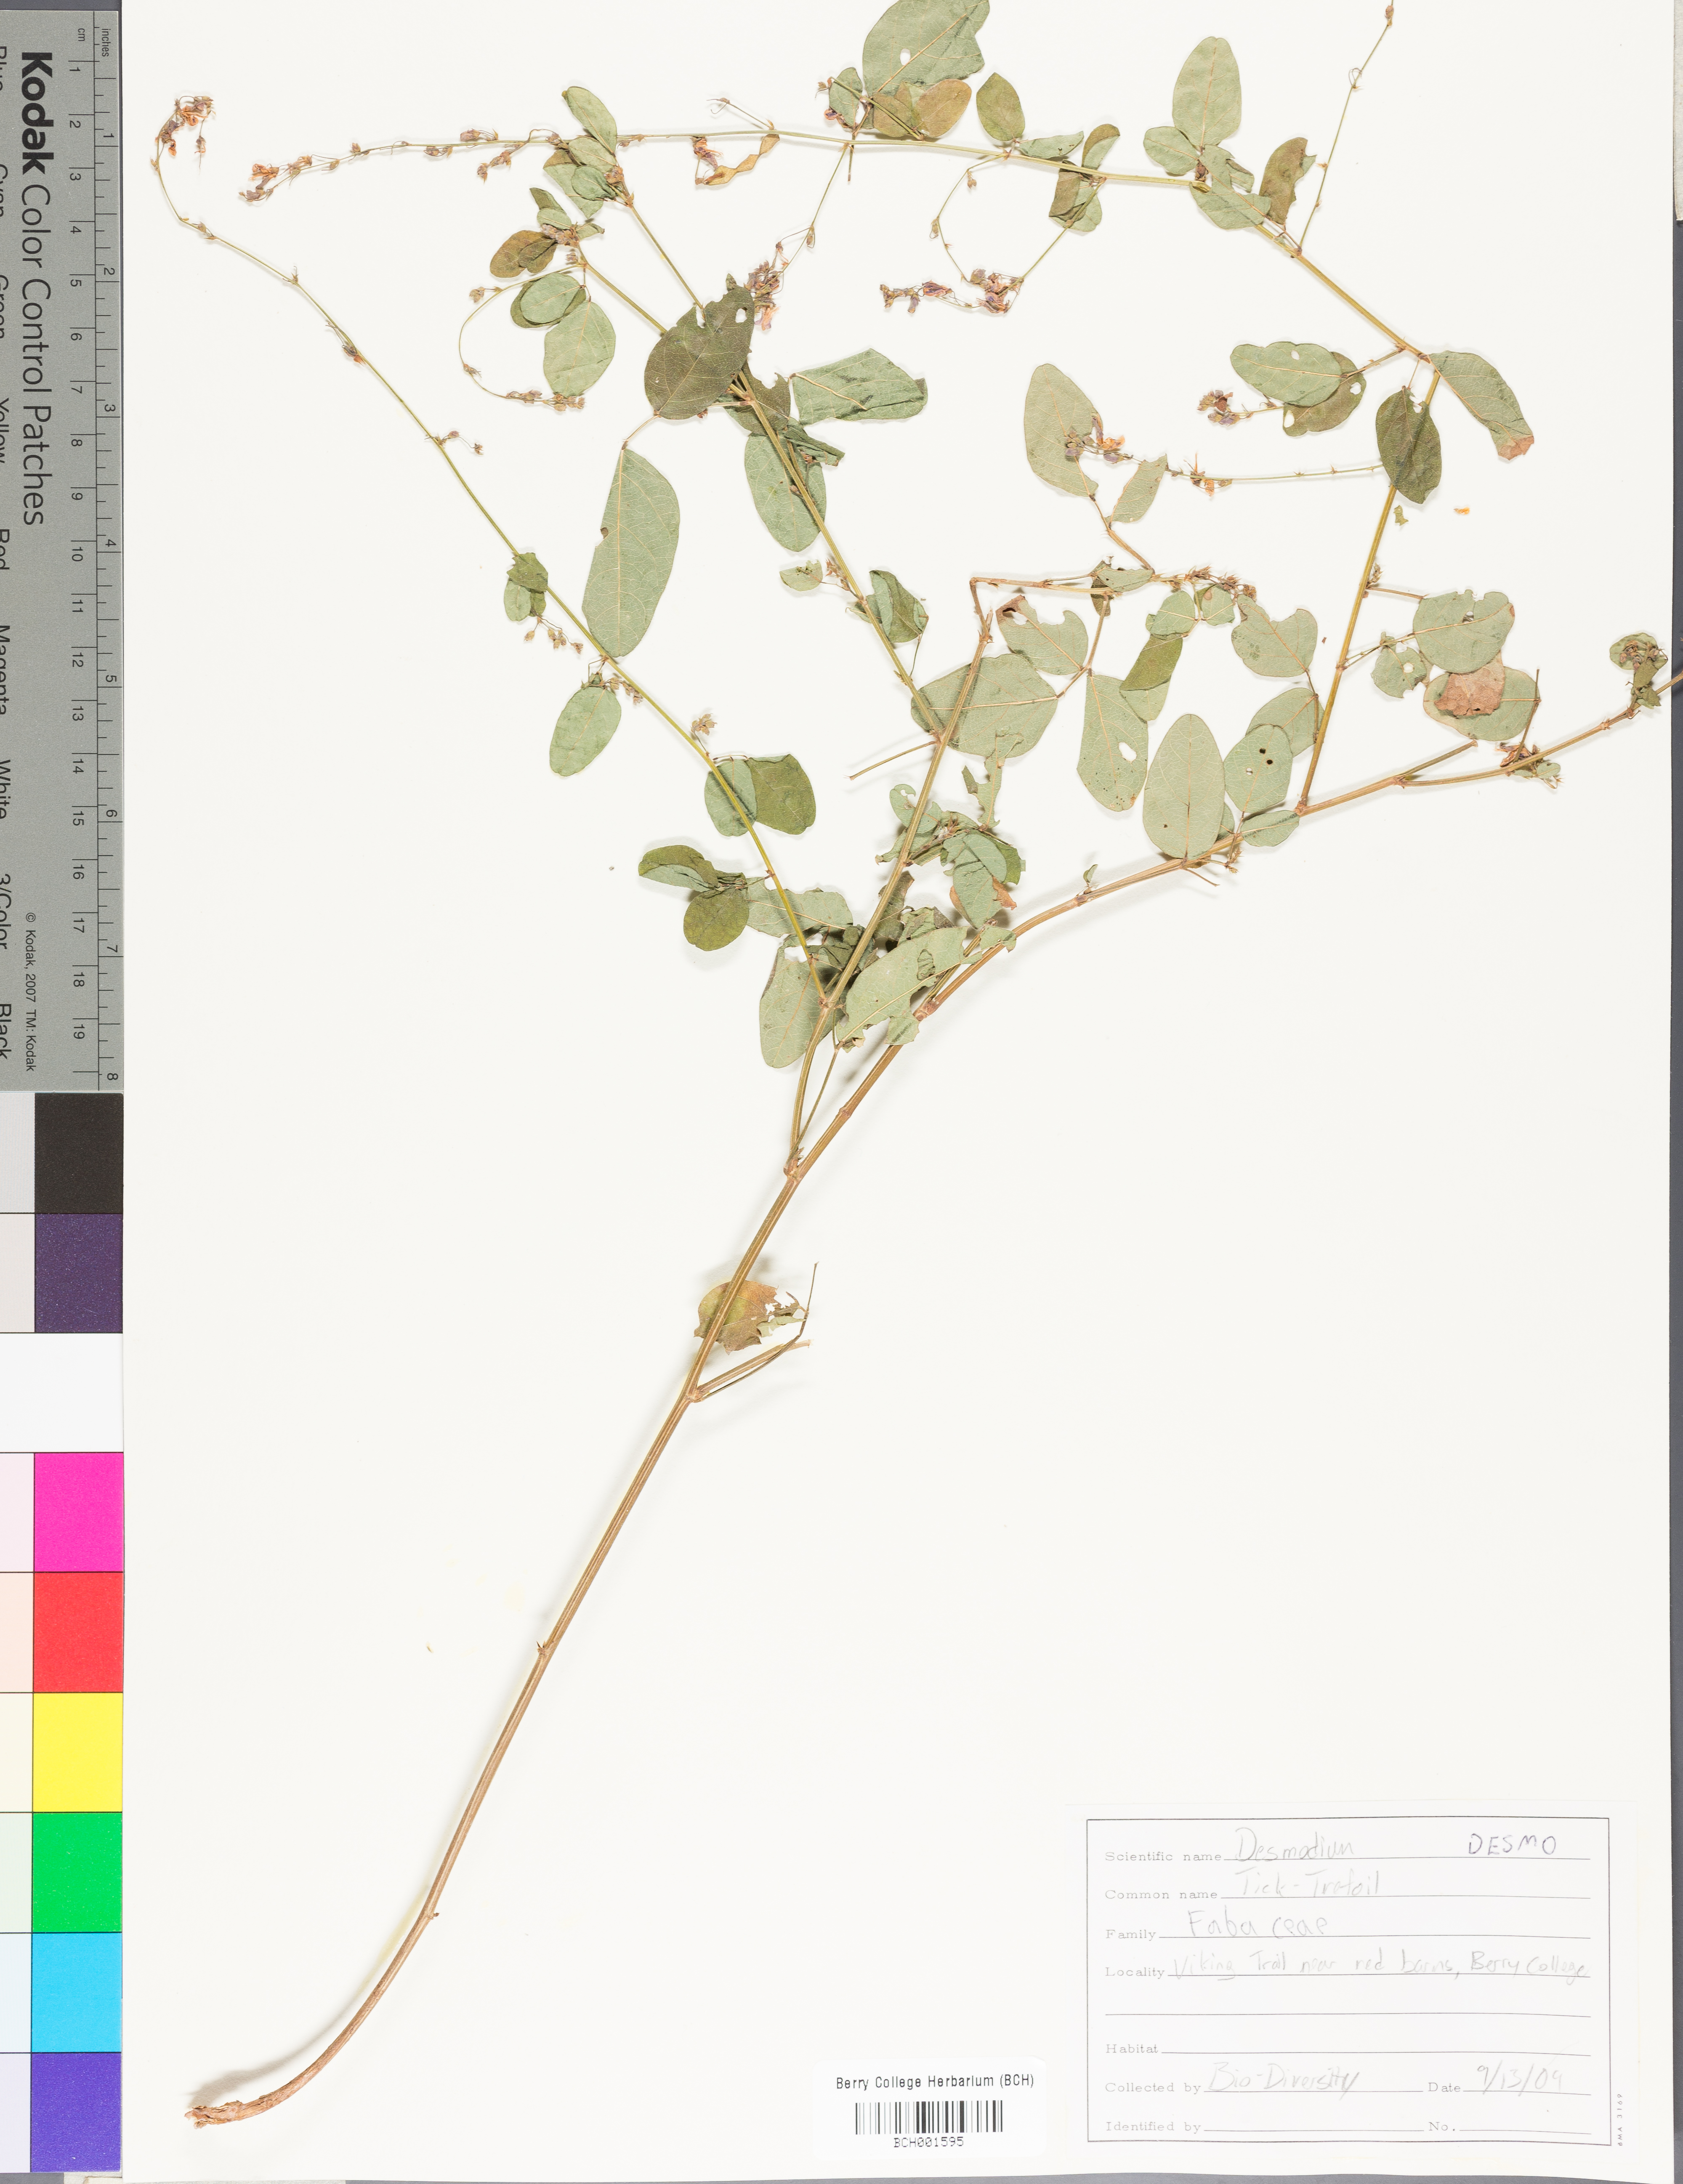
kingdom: Plantae
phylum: Tracheophyta
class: Magnoliopsida
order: Fabales
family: Fabaceae
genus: Desmodium
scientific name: Desmodium
